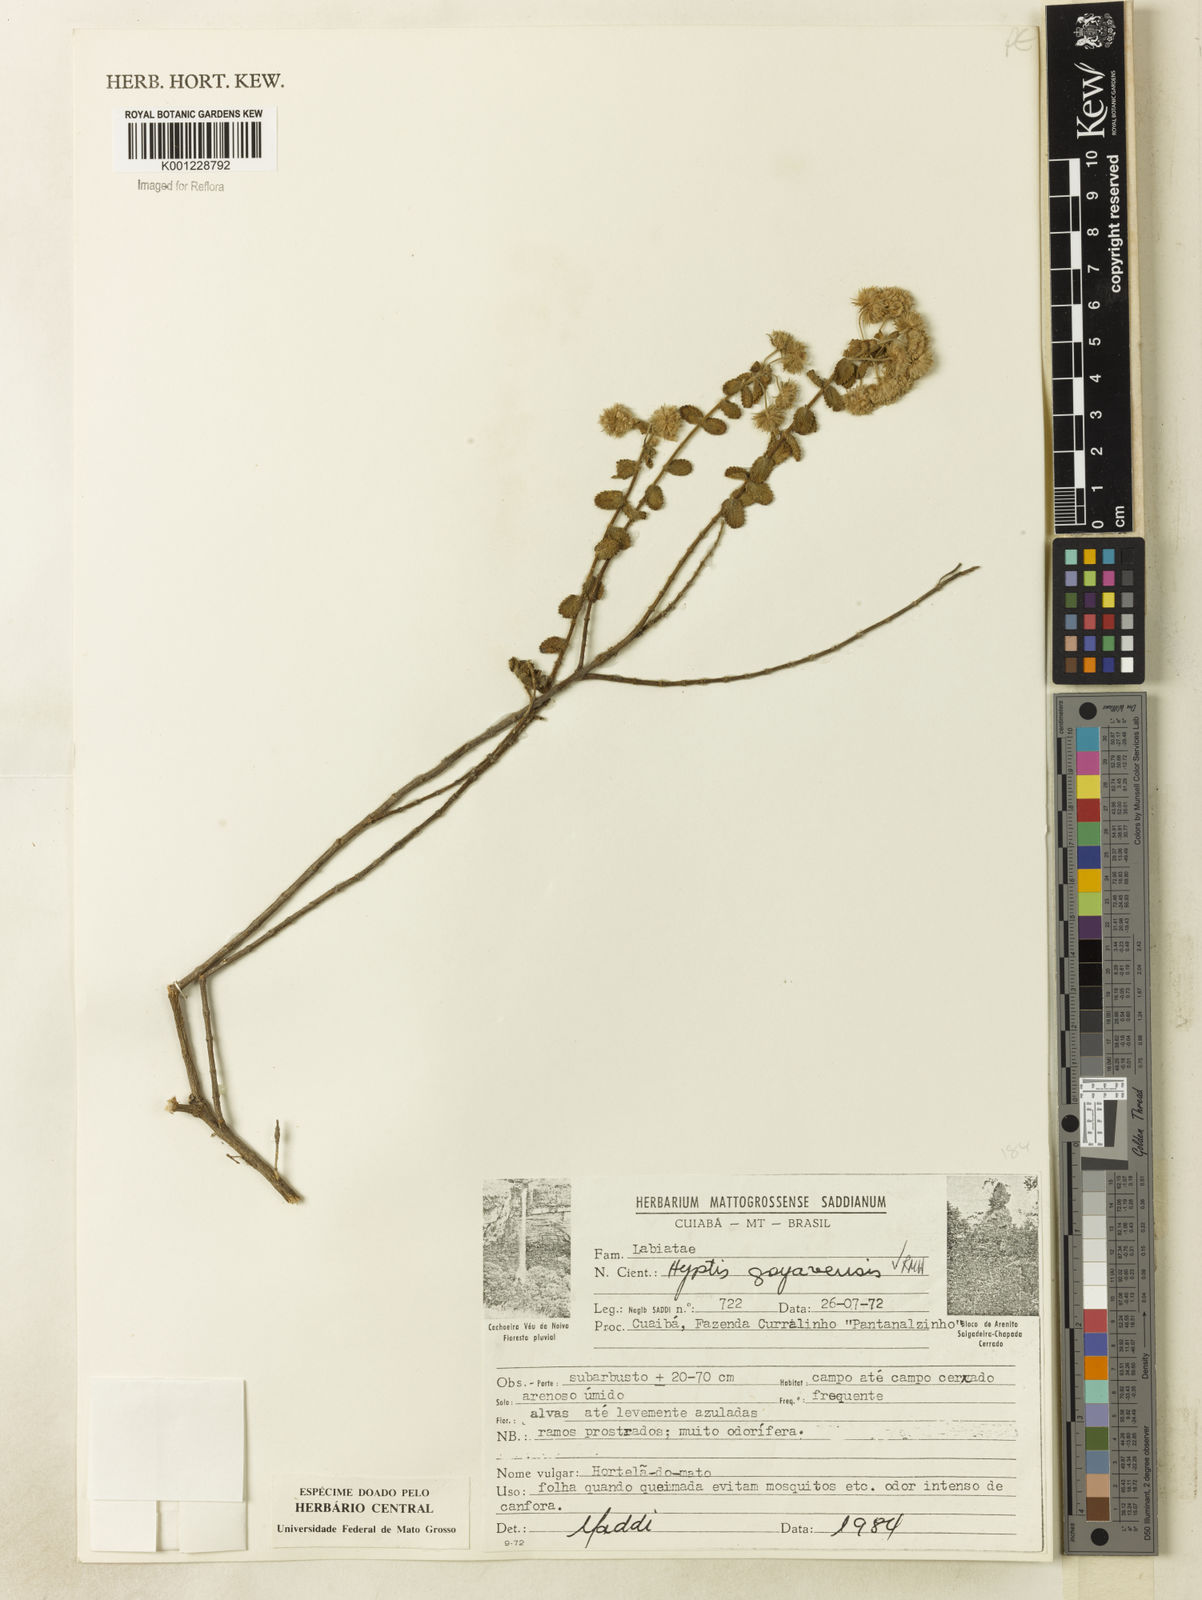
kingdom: Plantae
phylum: Tracheophyta
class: Magnoliopsida
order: Lamiales
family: Lamiaceae
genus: Hyptis
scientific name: Hyptis goyazensis
